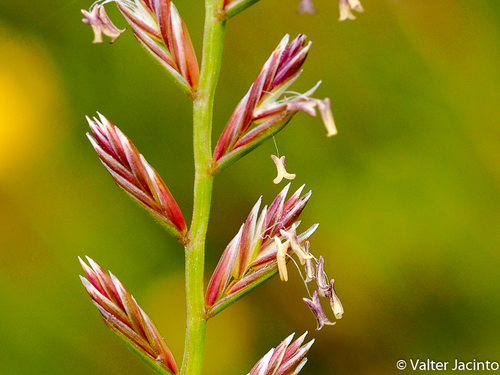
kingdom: Plantae
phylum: Tracheophyta
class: Liliopsida
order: Poales
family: Poaceae
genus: Lolium
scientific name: Lolium perenne
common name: Perennial ryegrass
